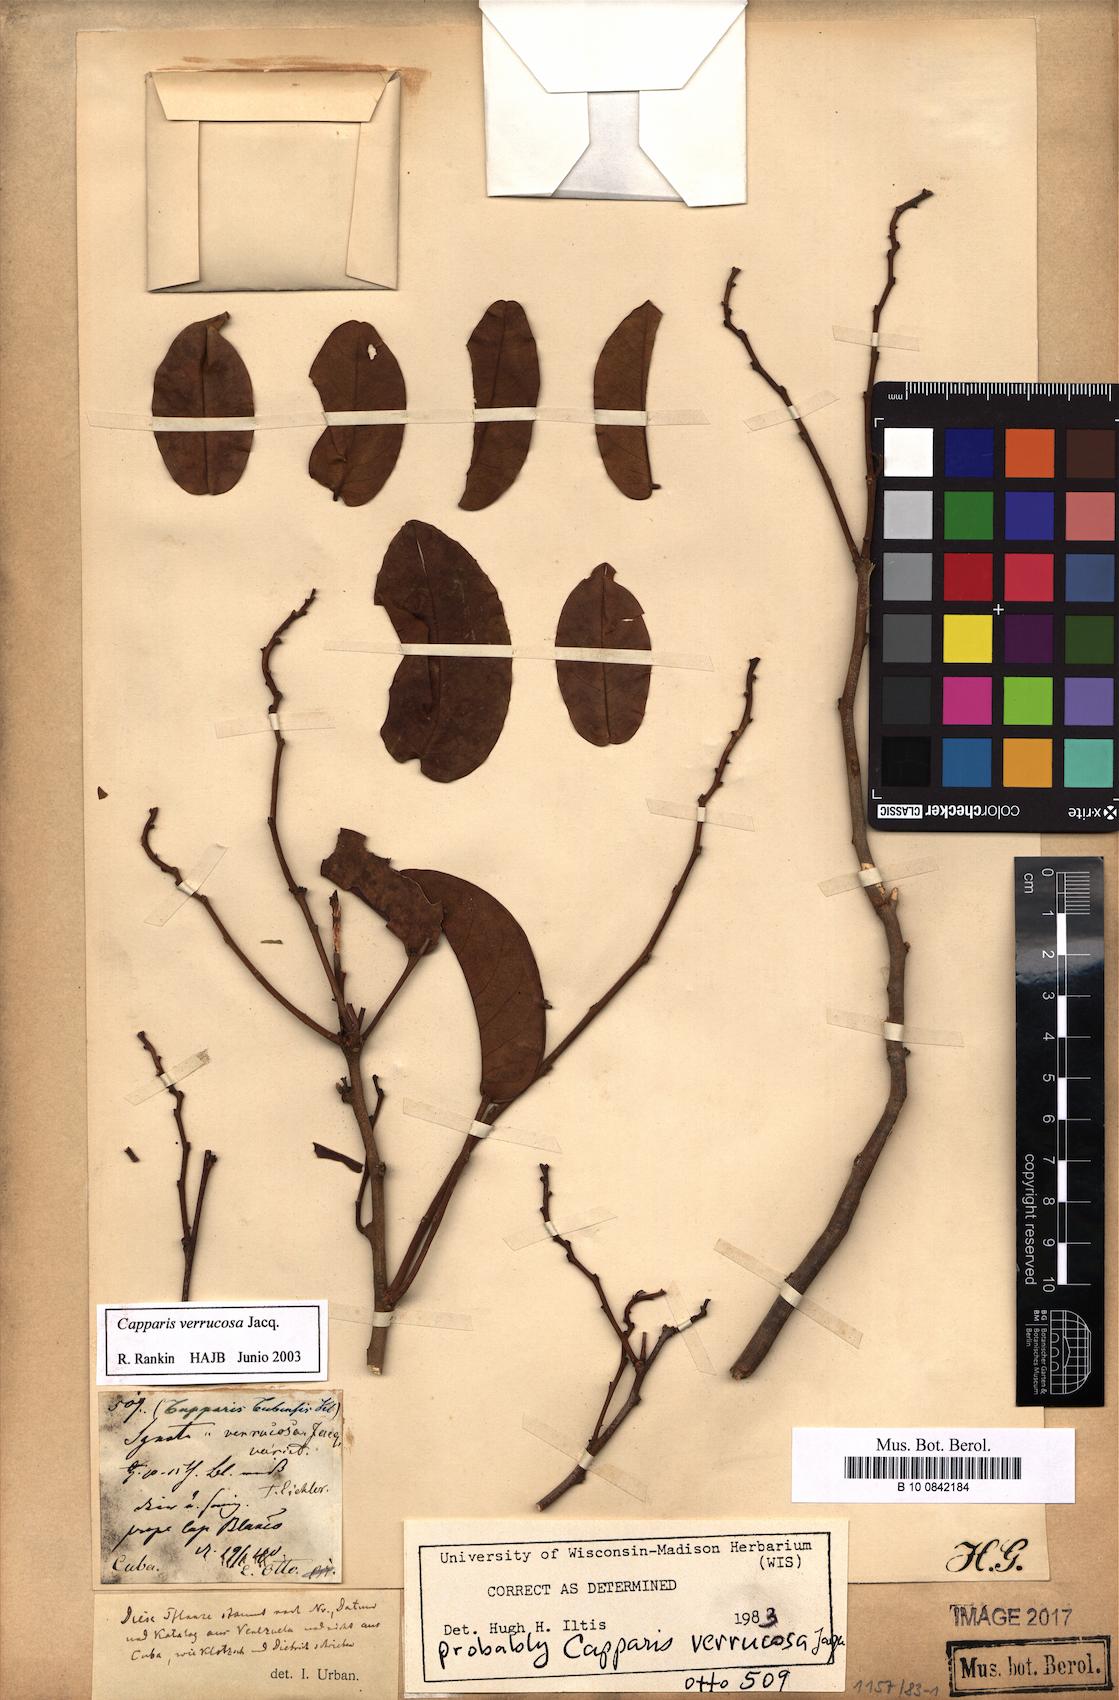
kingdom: Plantae
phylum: Tracheophyta
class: Magnoliopsida
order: Brassicales
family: Capparaceae
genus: Cynophalla
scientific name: Cynophalla verrucosa
